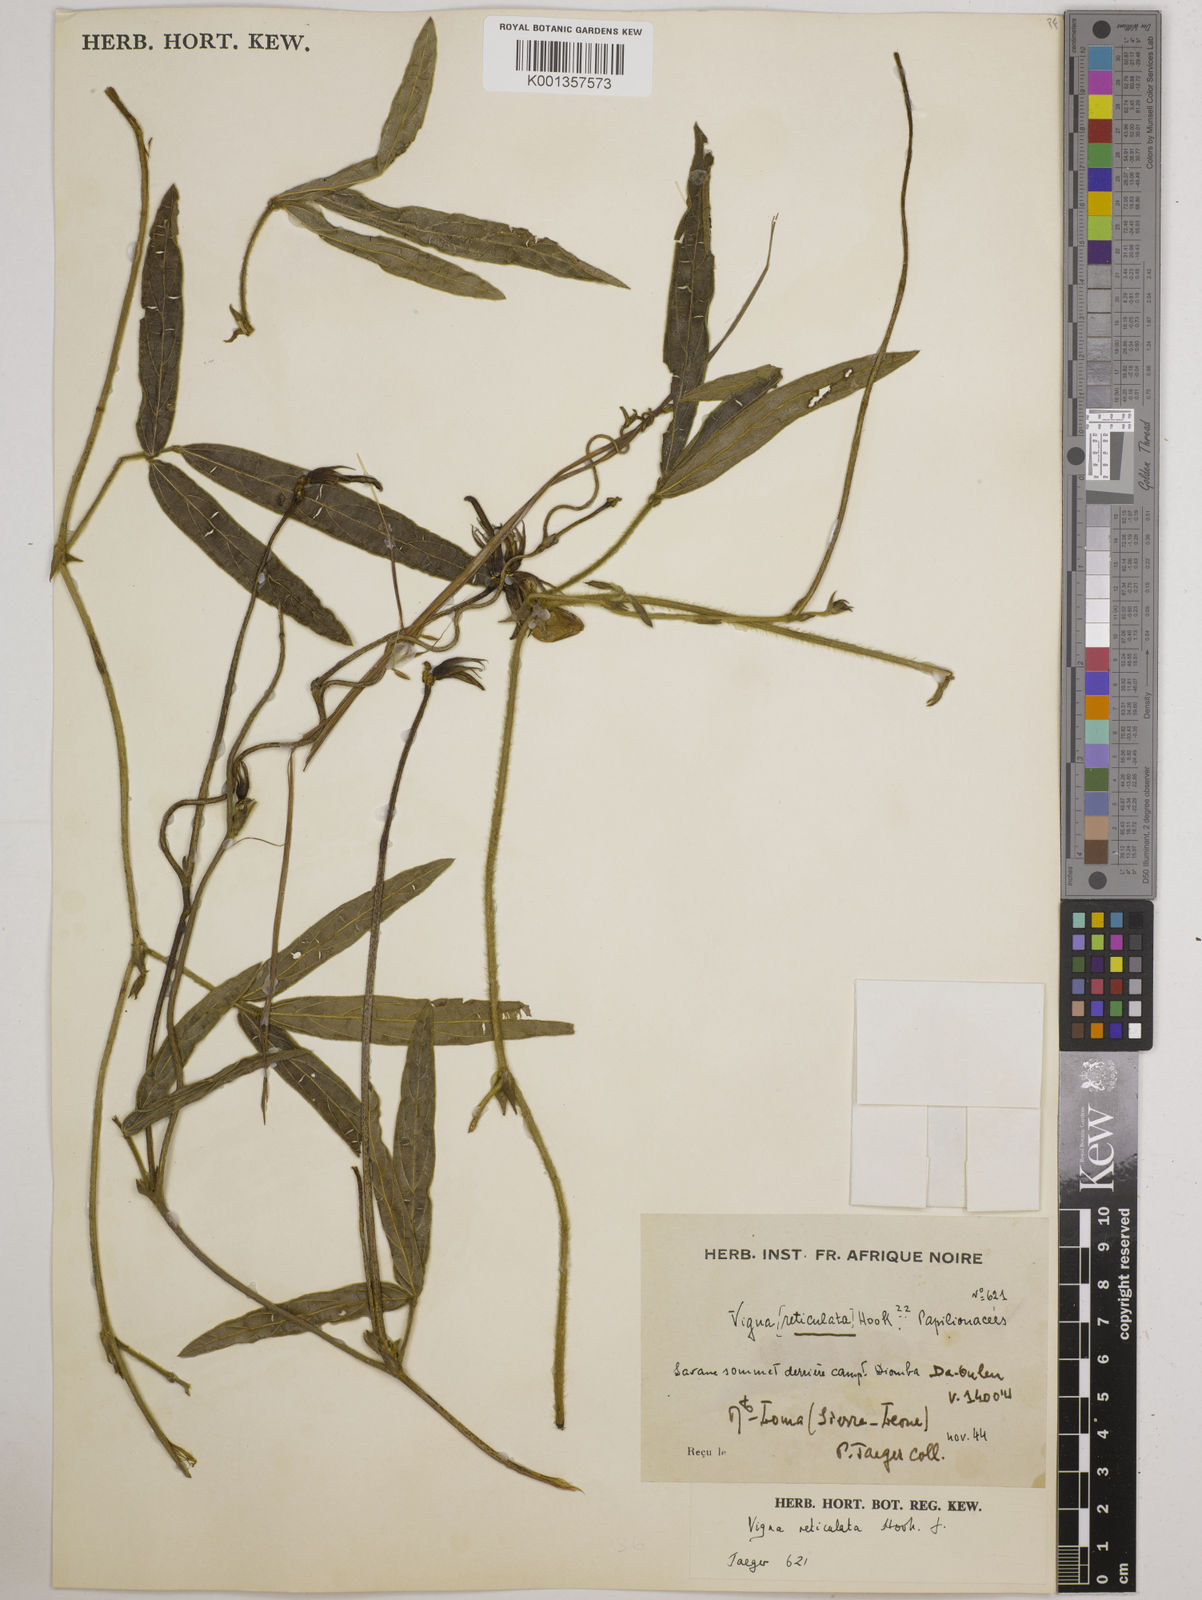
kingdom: Plantae
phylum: Tracheophyta
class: Magnoliopsida
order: Fabales
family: Fabaceae
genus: Vigna
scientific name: Vigna reticulata
